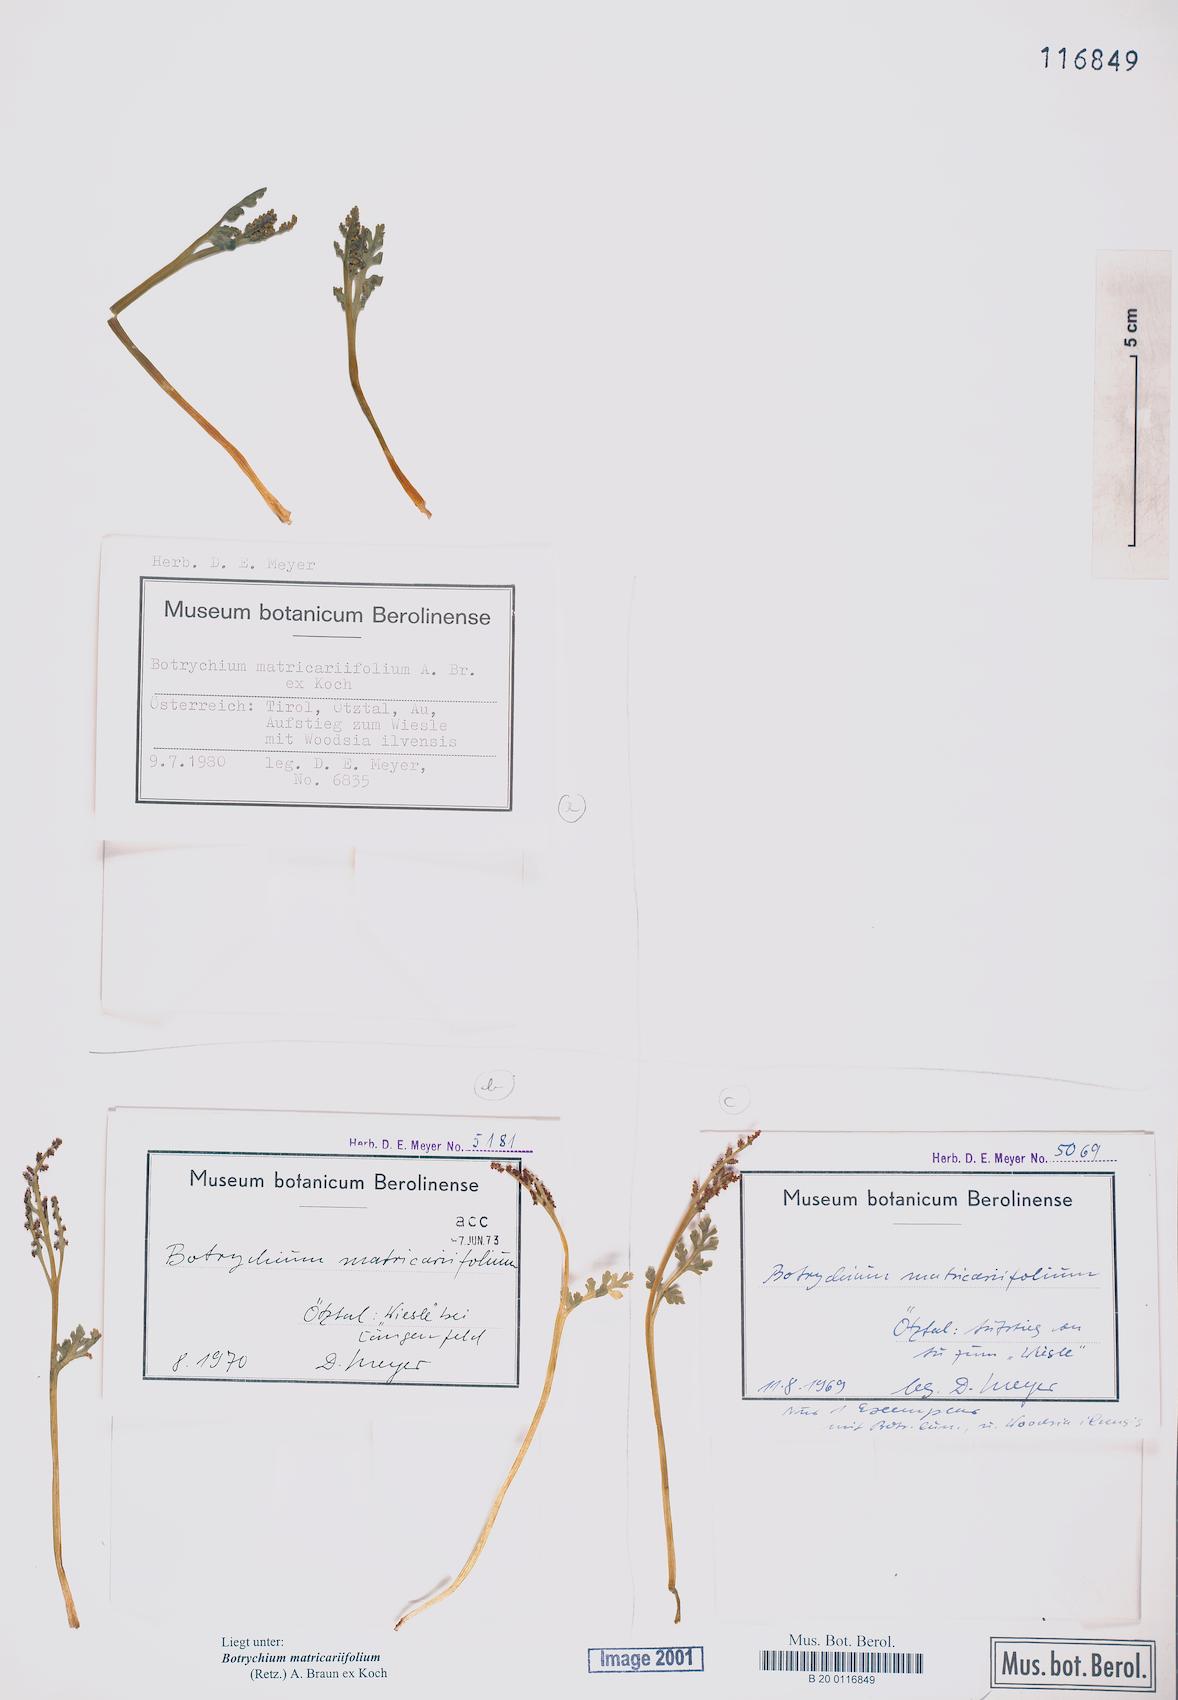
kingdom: Plantae
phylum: Tracheophyta
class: Polypodiopsida
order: Ophioglossales
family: Ophioglossaceae
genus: Botrychium
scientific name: Botrychium matricariifolium
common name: Branched moonwort
